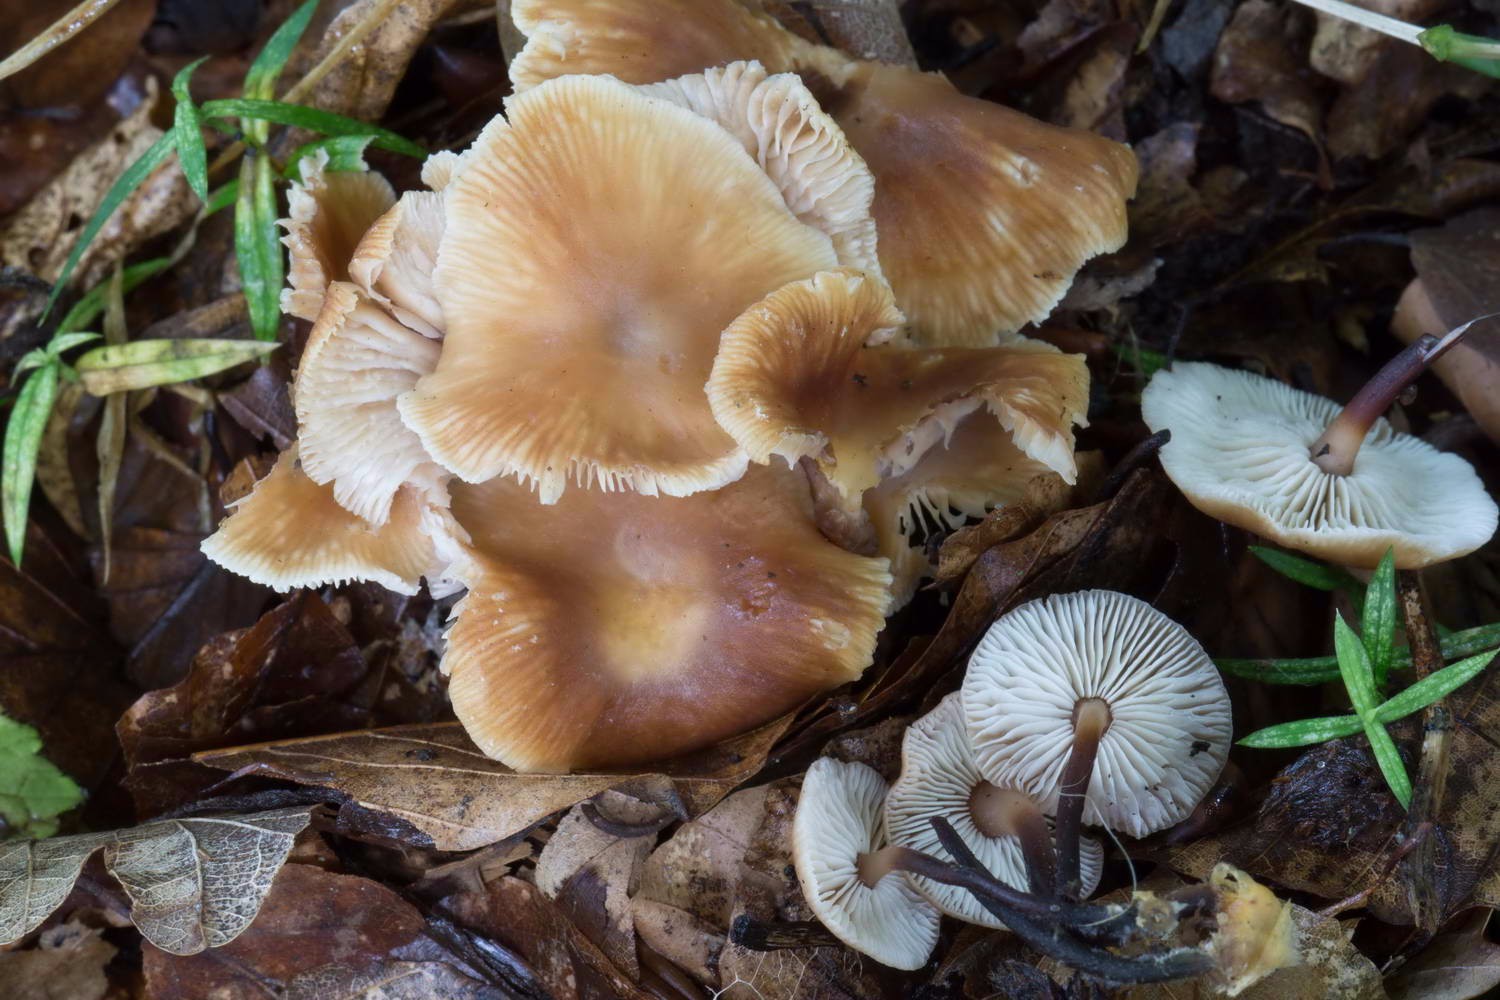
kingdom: Fungi
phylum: Basidiomycota
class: Agaricomycetes
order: Agaricales
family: Omphalotaceae
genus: Gymnopus
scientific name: Gymnopus brassicolens
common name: kål-fladhat
